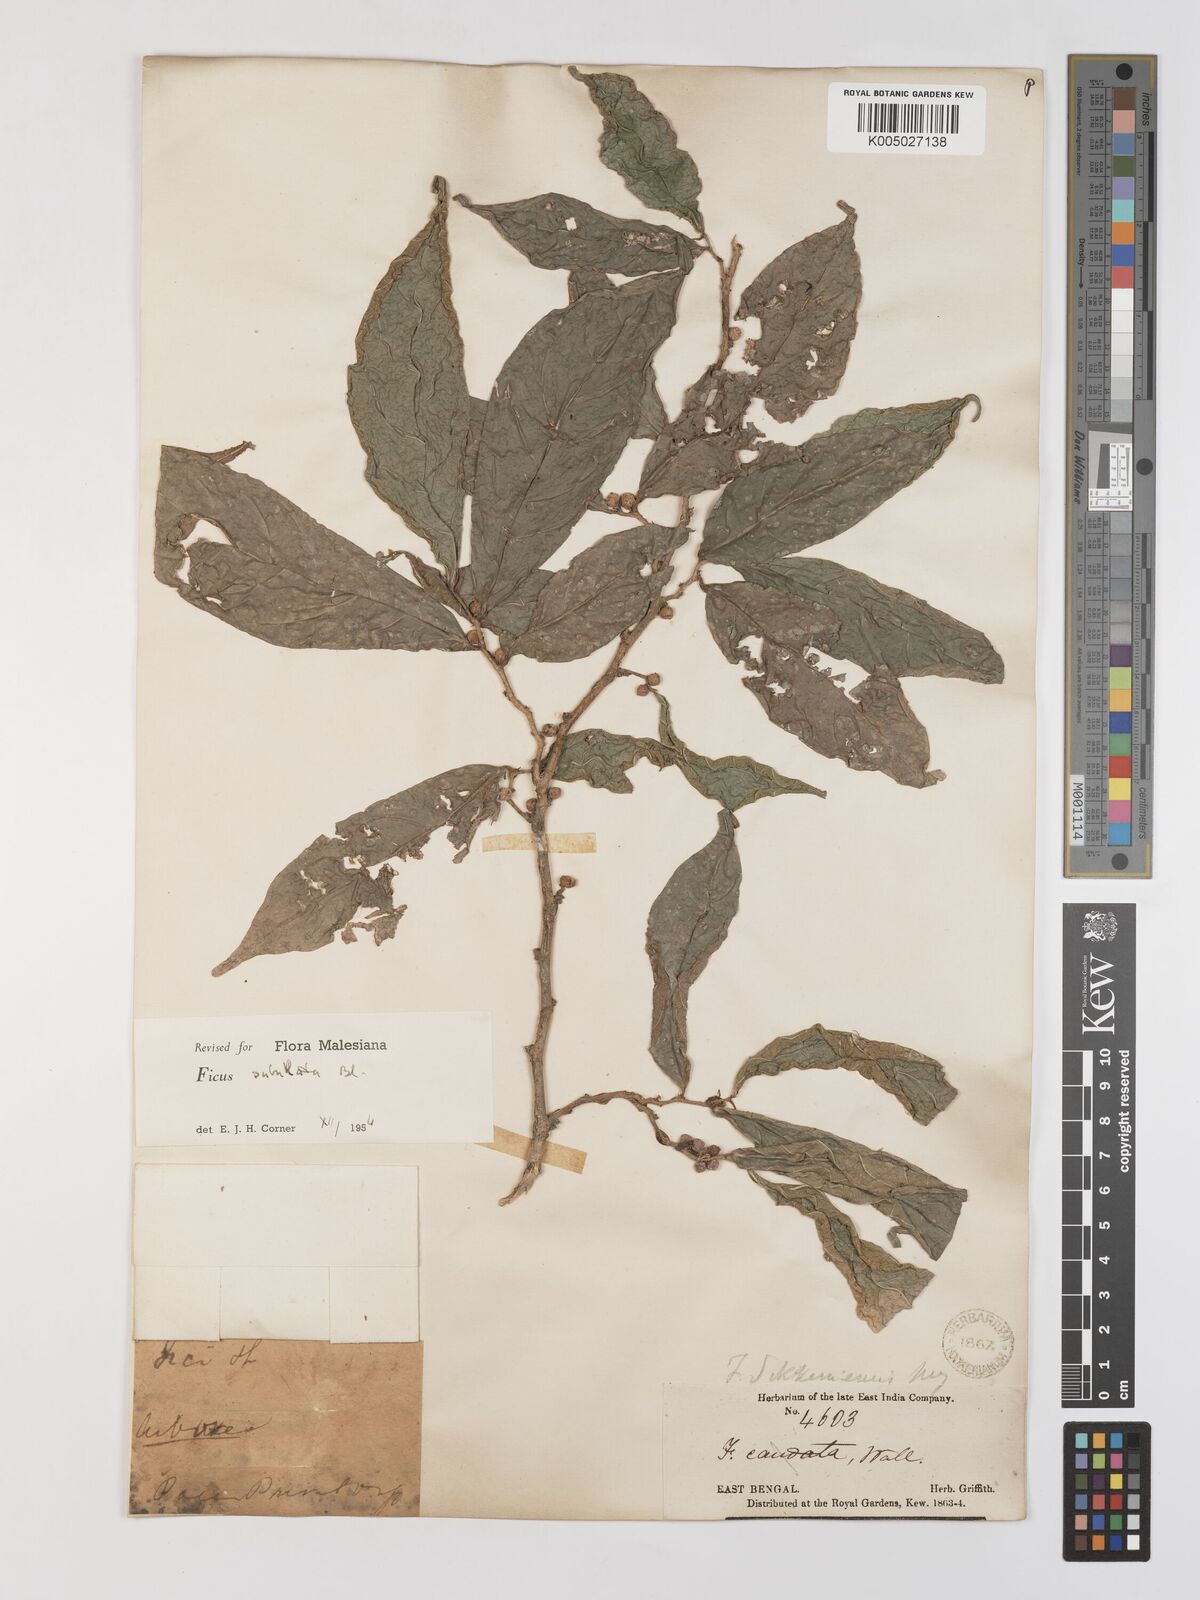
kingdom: Plantae
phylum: Tracheophyta
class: Magnoliopsida
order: Rosales
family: Moraceae
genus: Ficus
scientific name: Ficus subulata
